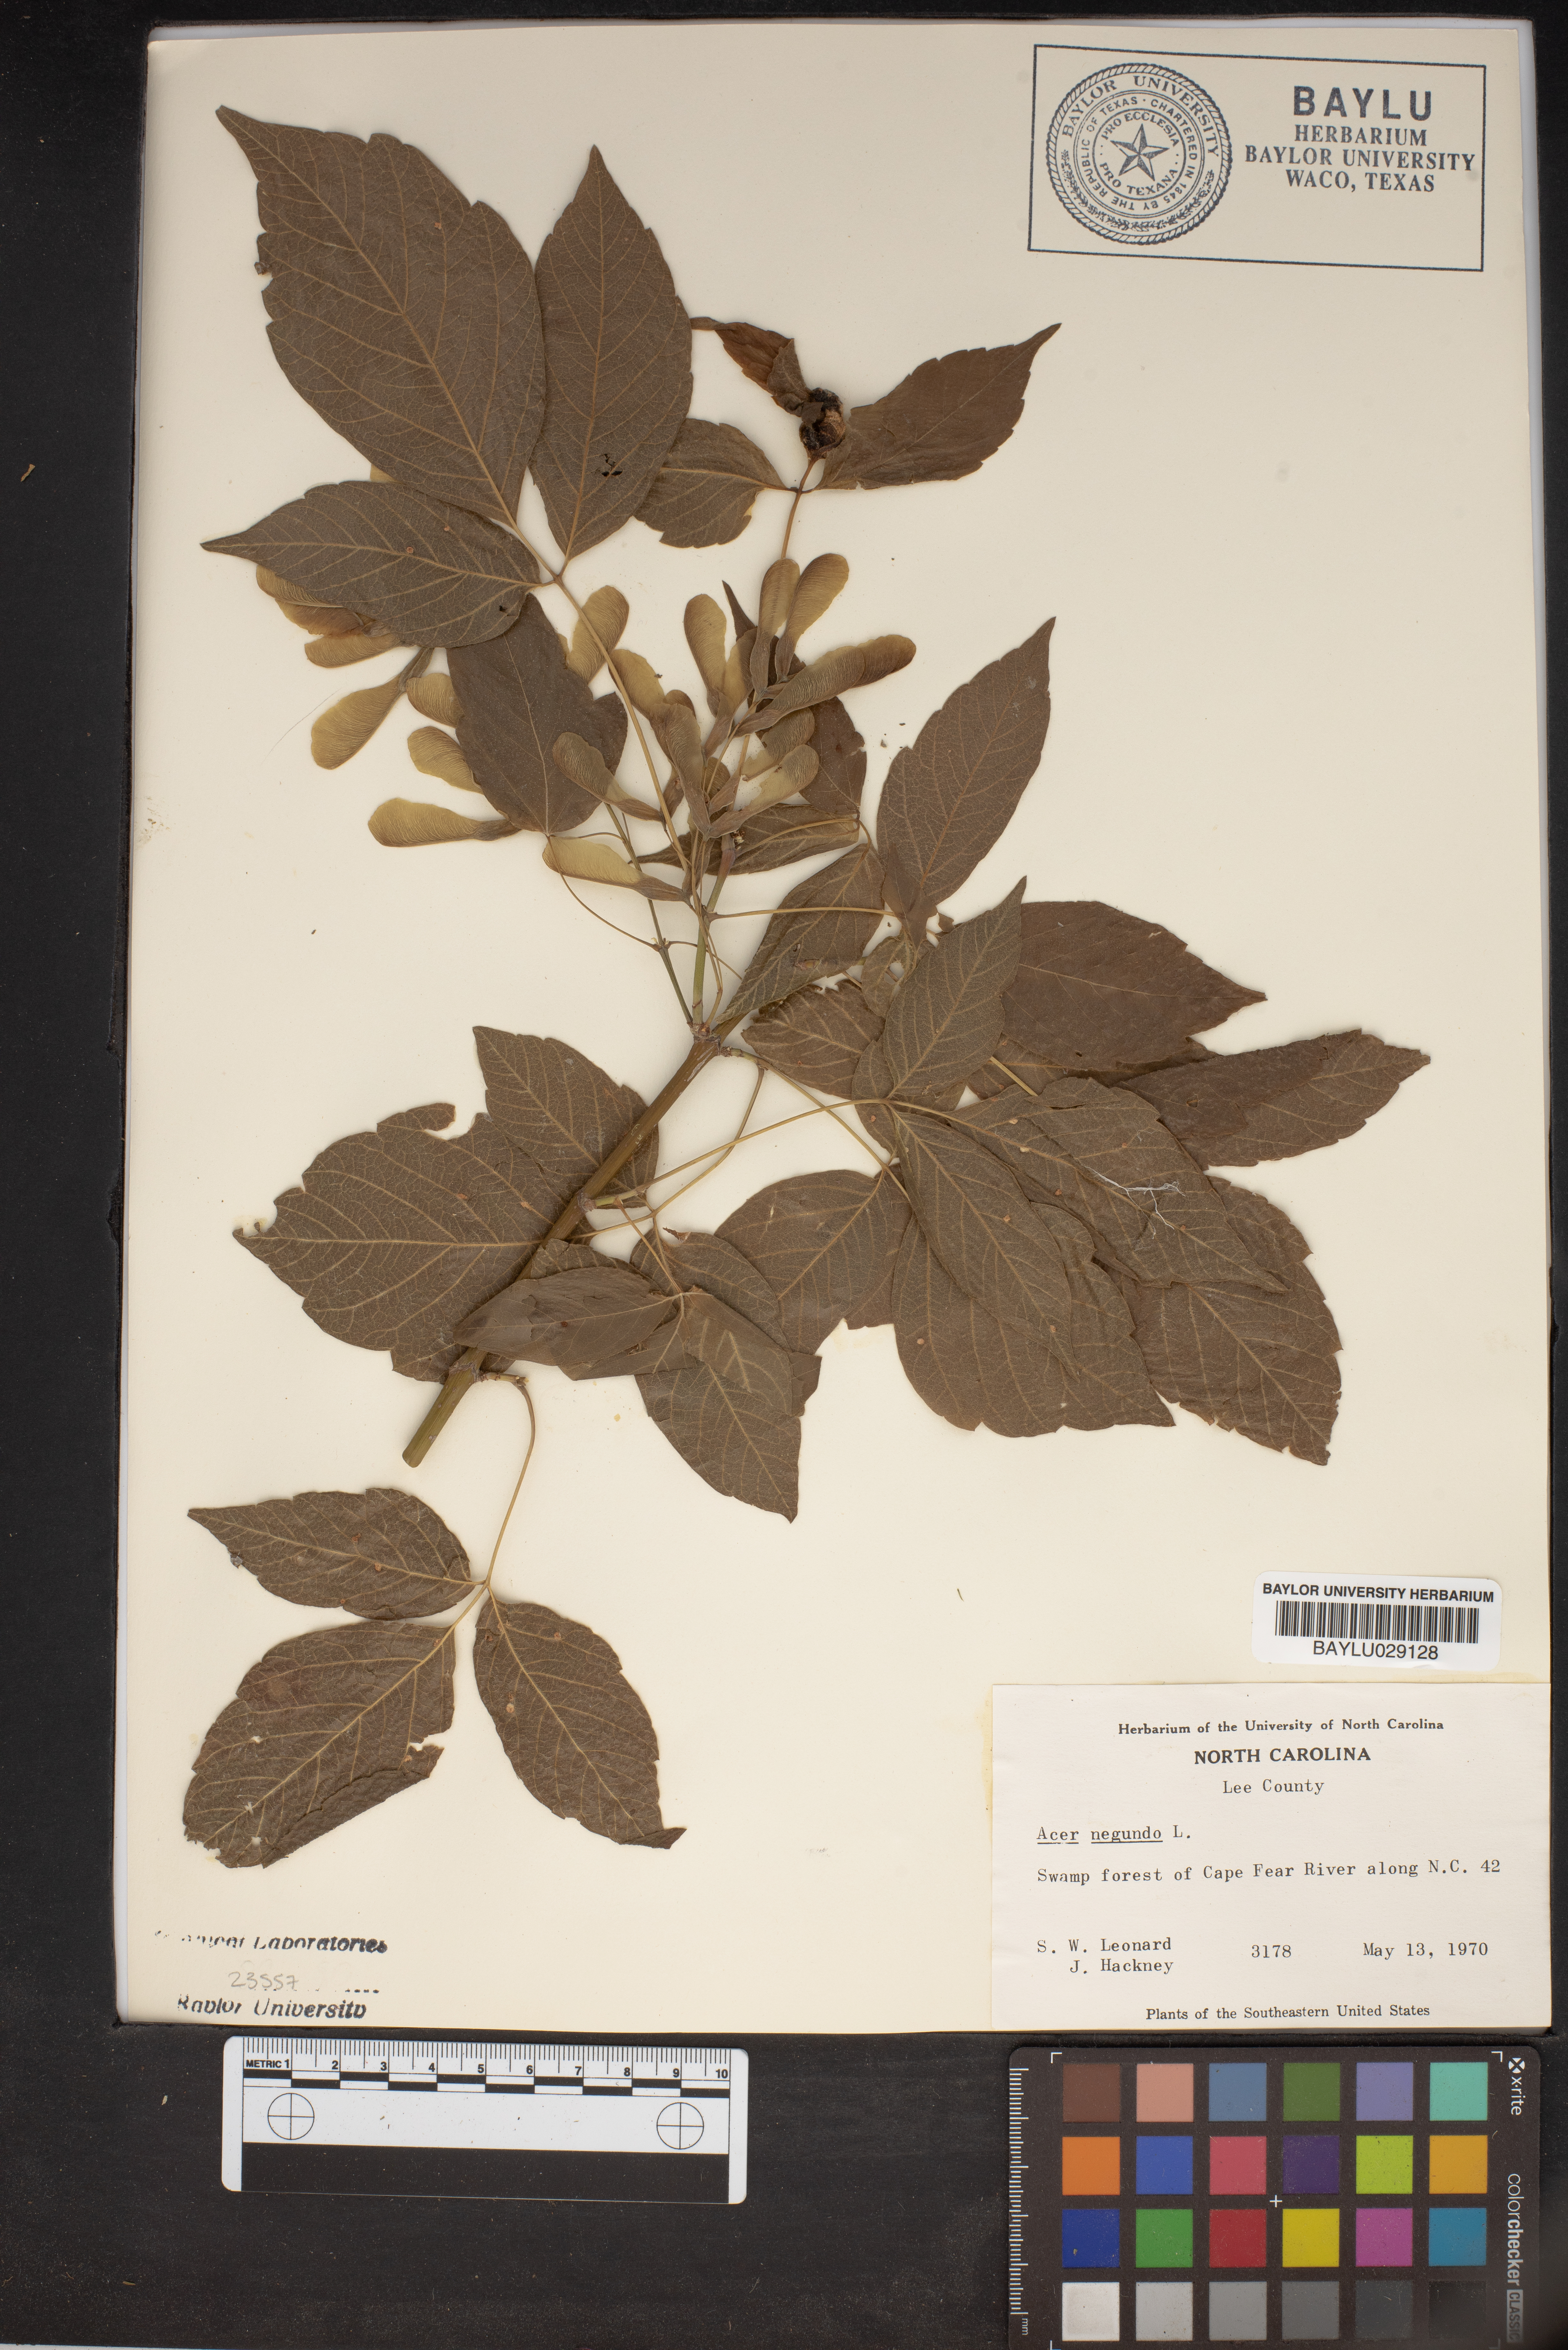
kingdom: Plantae
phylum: Tracheophyta
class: Magnoliopsida
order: Sapindales
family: Sapindaceae
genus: Acer
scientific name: Acer negundo
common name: Ashleaf maple
